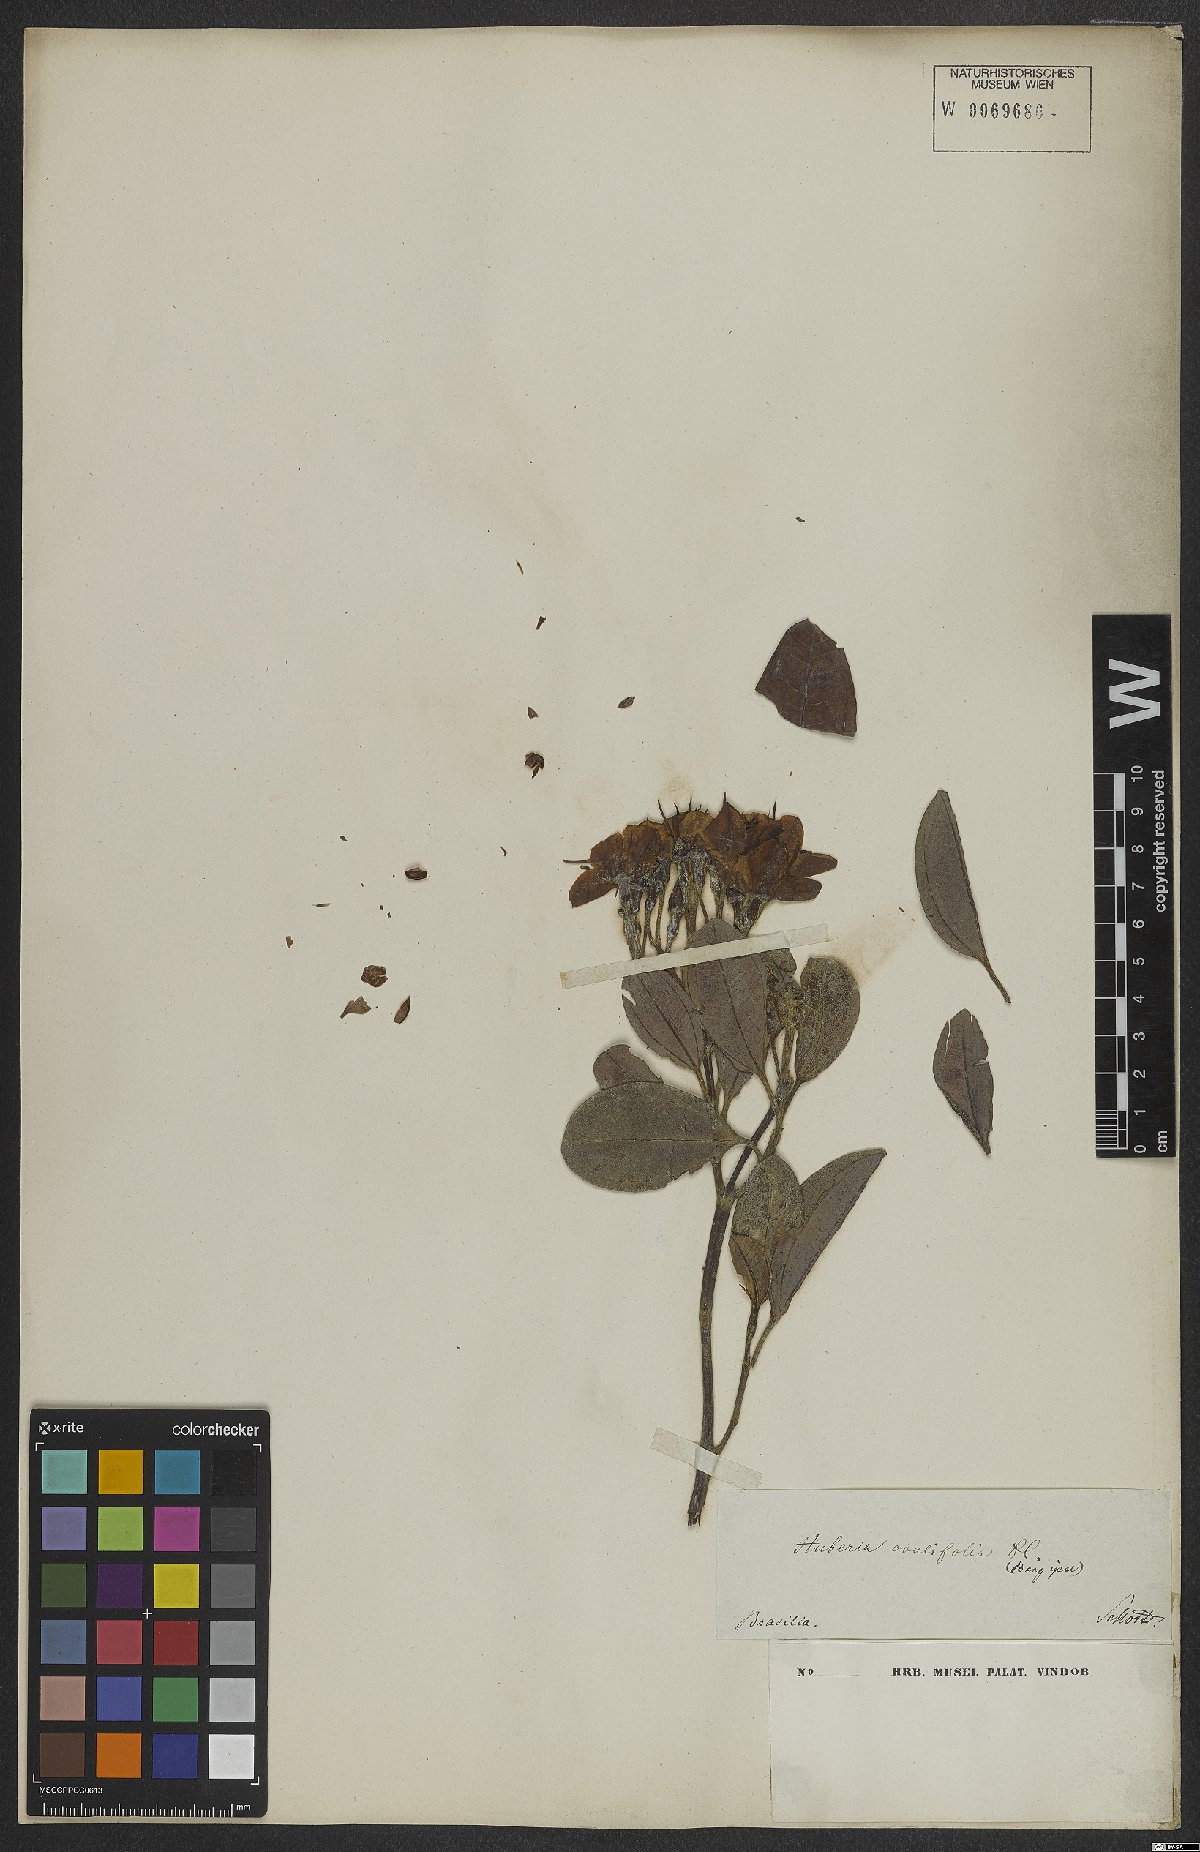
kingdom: Plantae
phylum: Tracheophyta
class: Magnoliopsida
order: Myrtales
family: Melastomataceae
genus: Huberia
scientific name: Huberia ovalifolia
